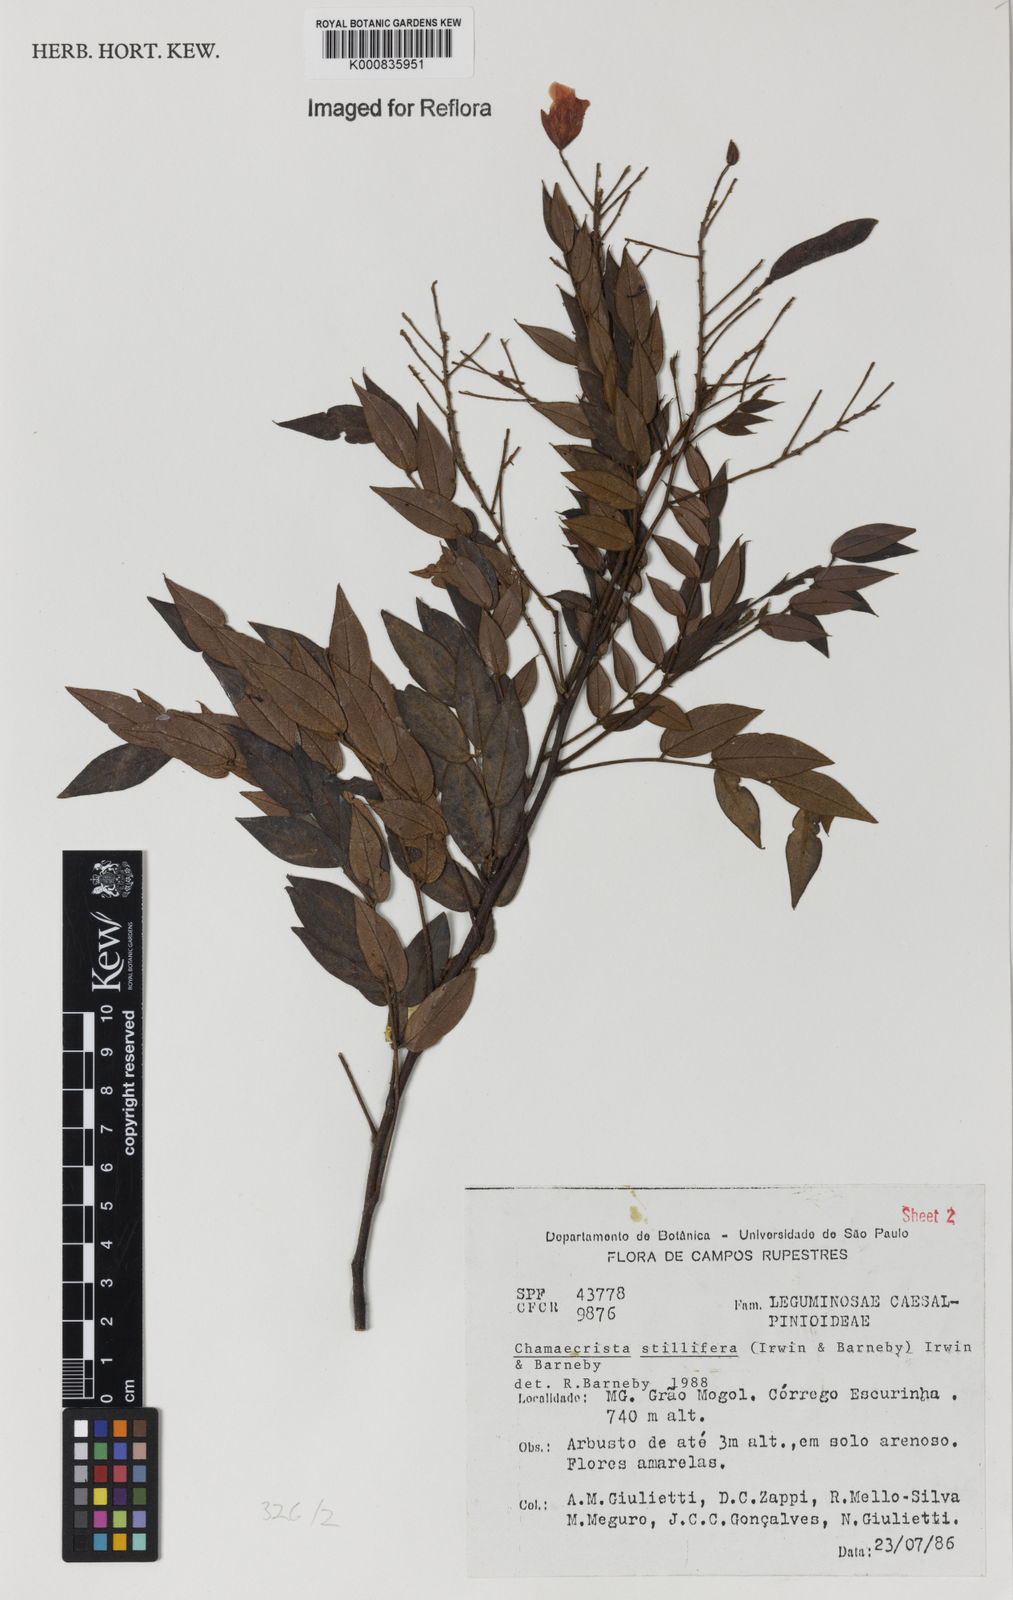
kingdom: Plantae
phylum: Tracheophyta
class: Magnoliopsida
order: Fabales
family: Fabaceae
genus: Chamaecrista
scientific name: Chamaecrista stillifera
